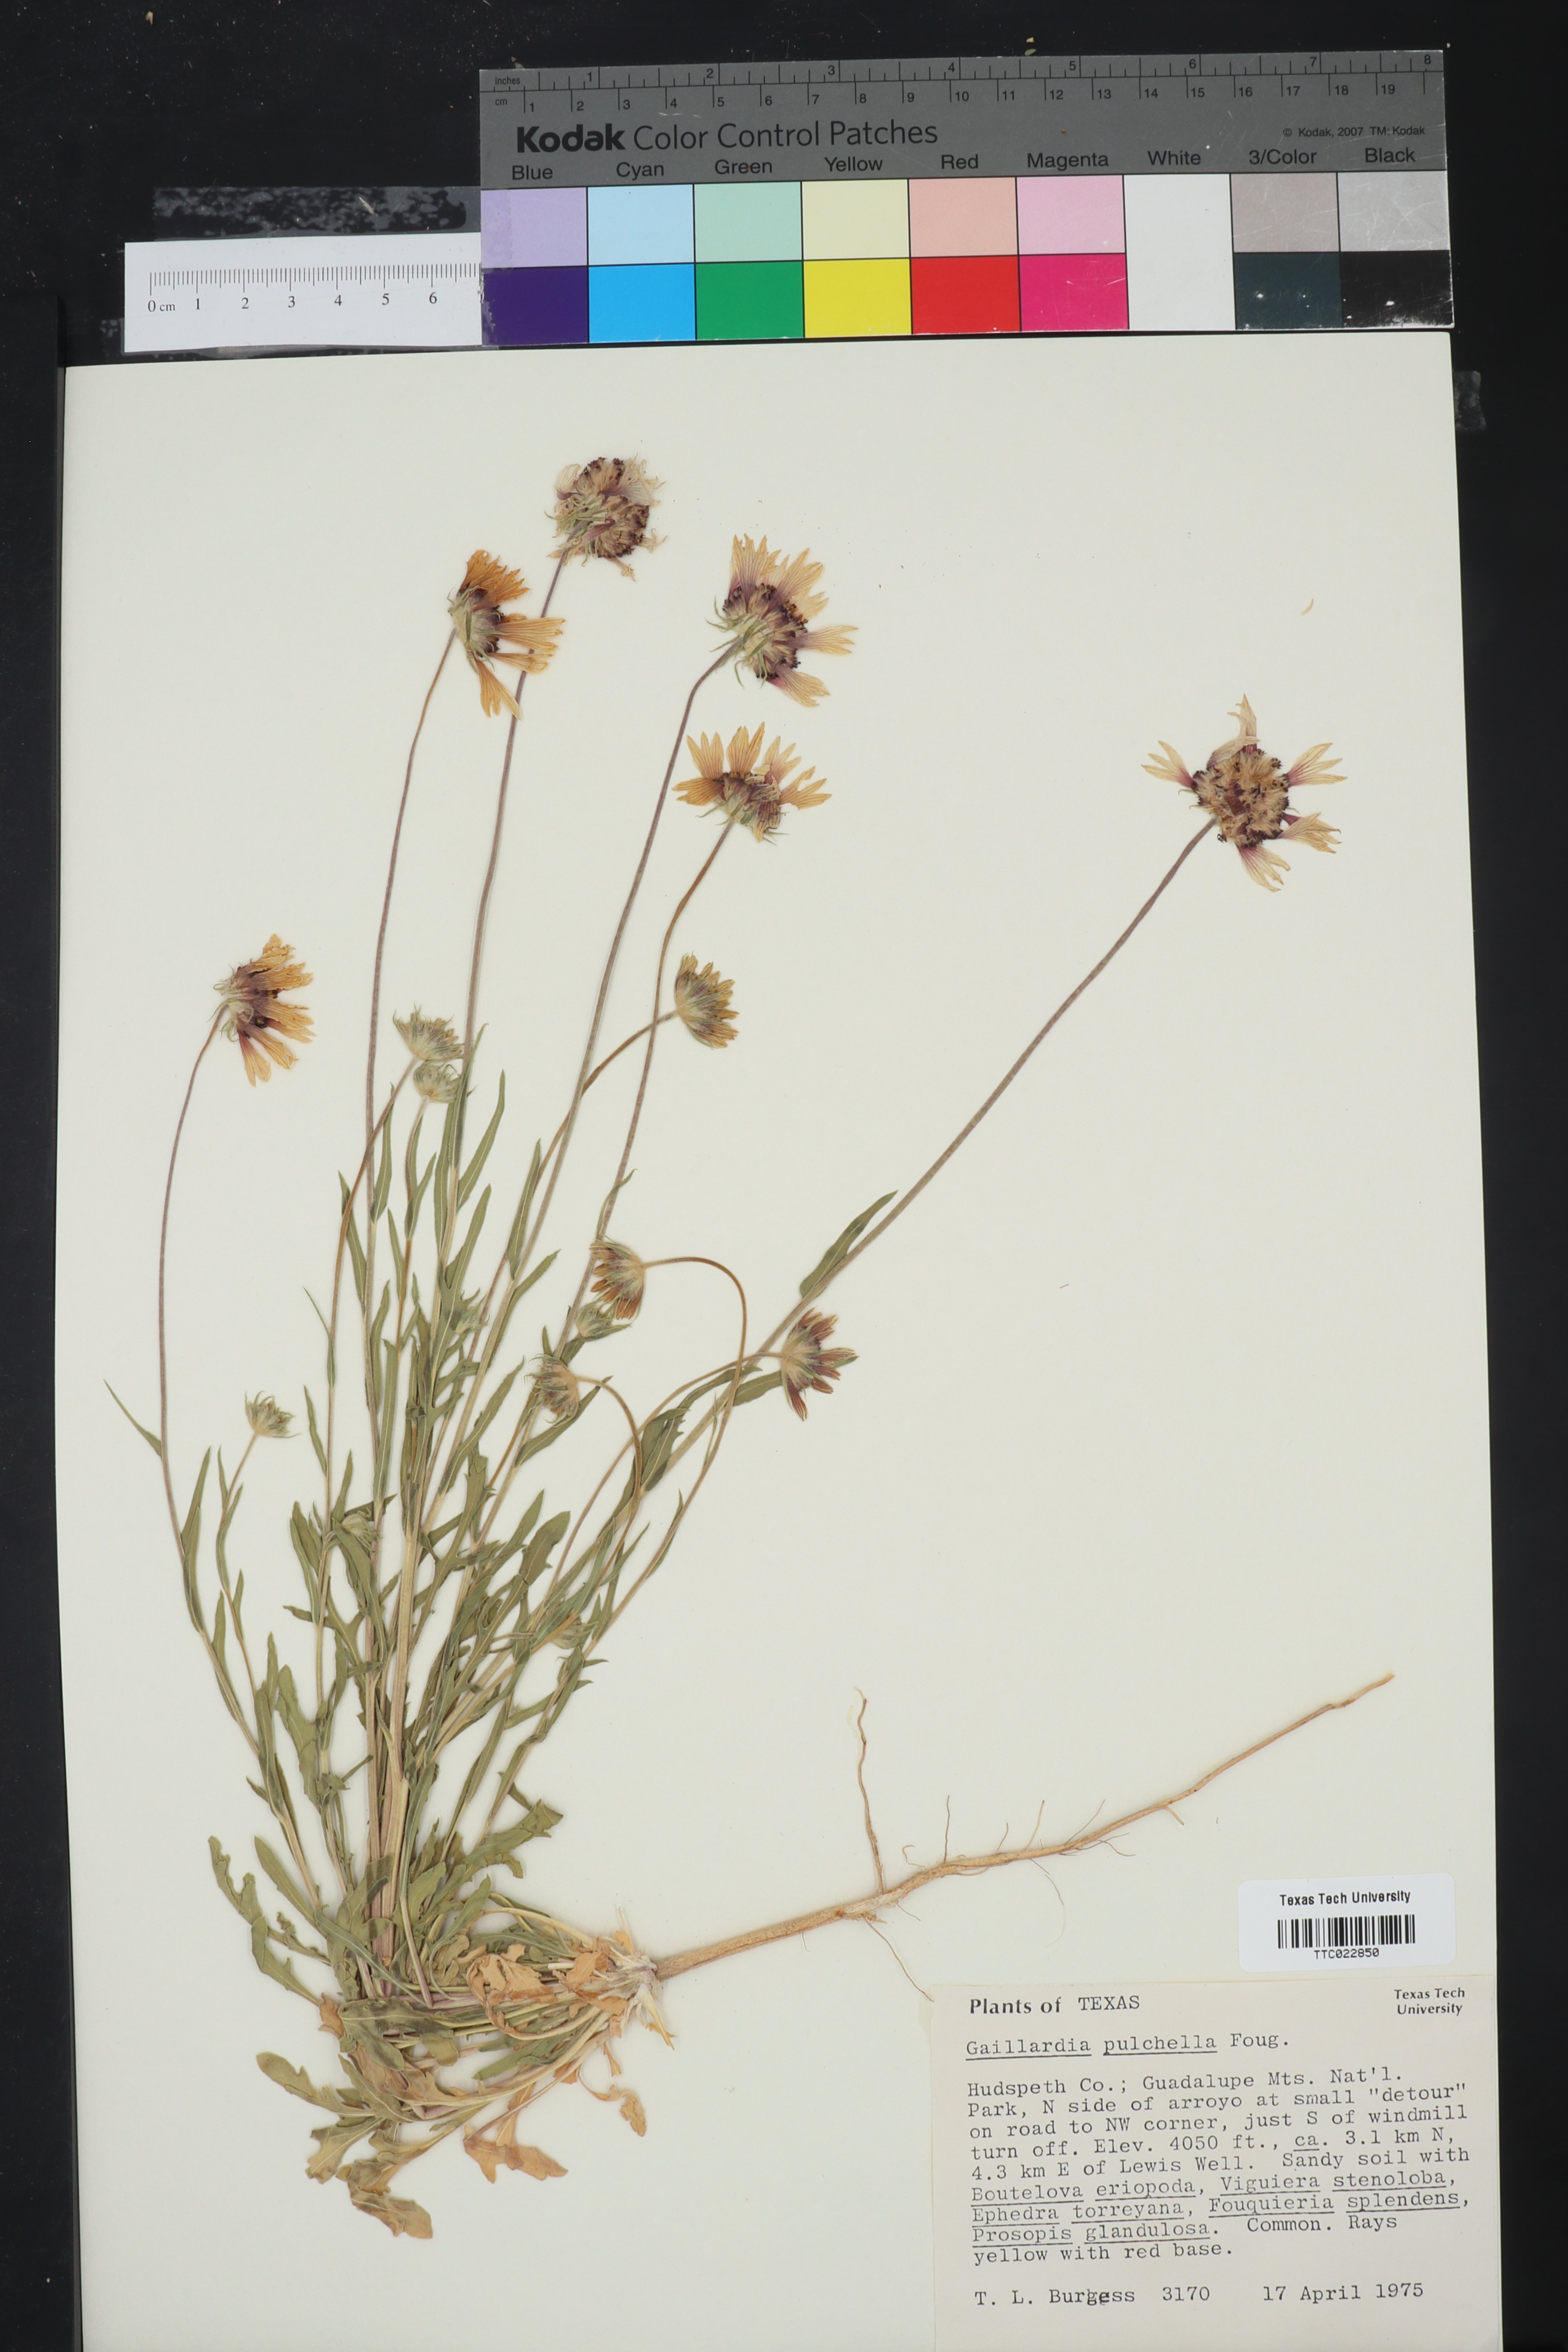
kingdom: Plantae
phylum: Tracheophyta
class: Magnoliopsida
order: Asterales
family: Asteraceae
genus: Gaillardia
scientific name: Gaillardia pulchella
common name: Firewheel
